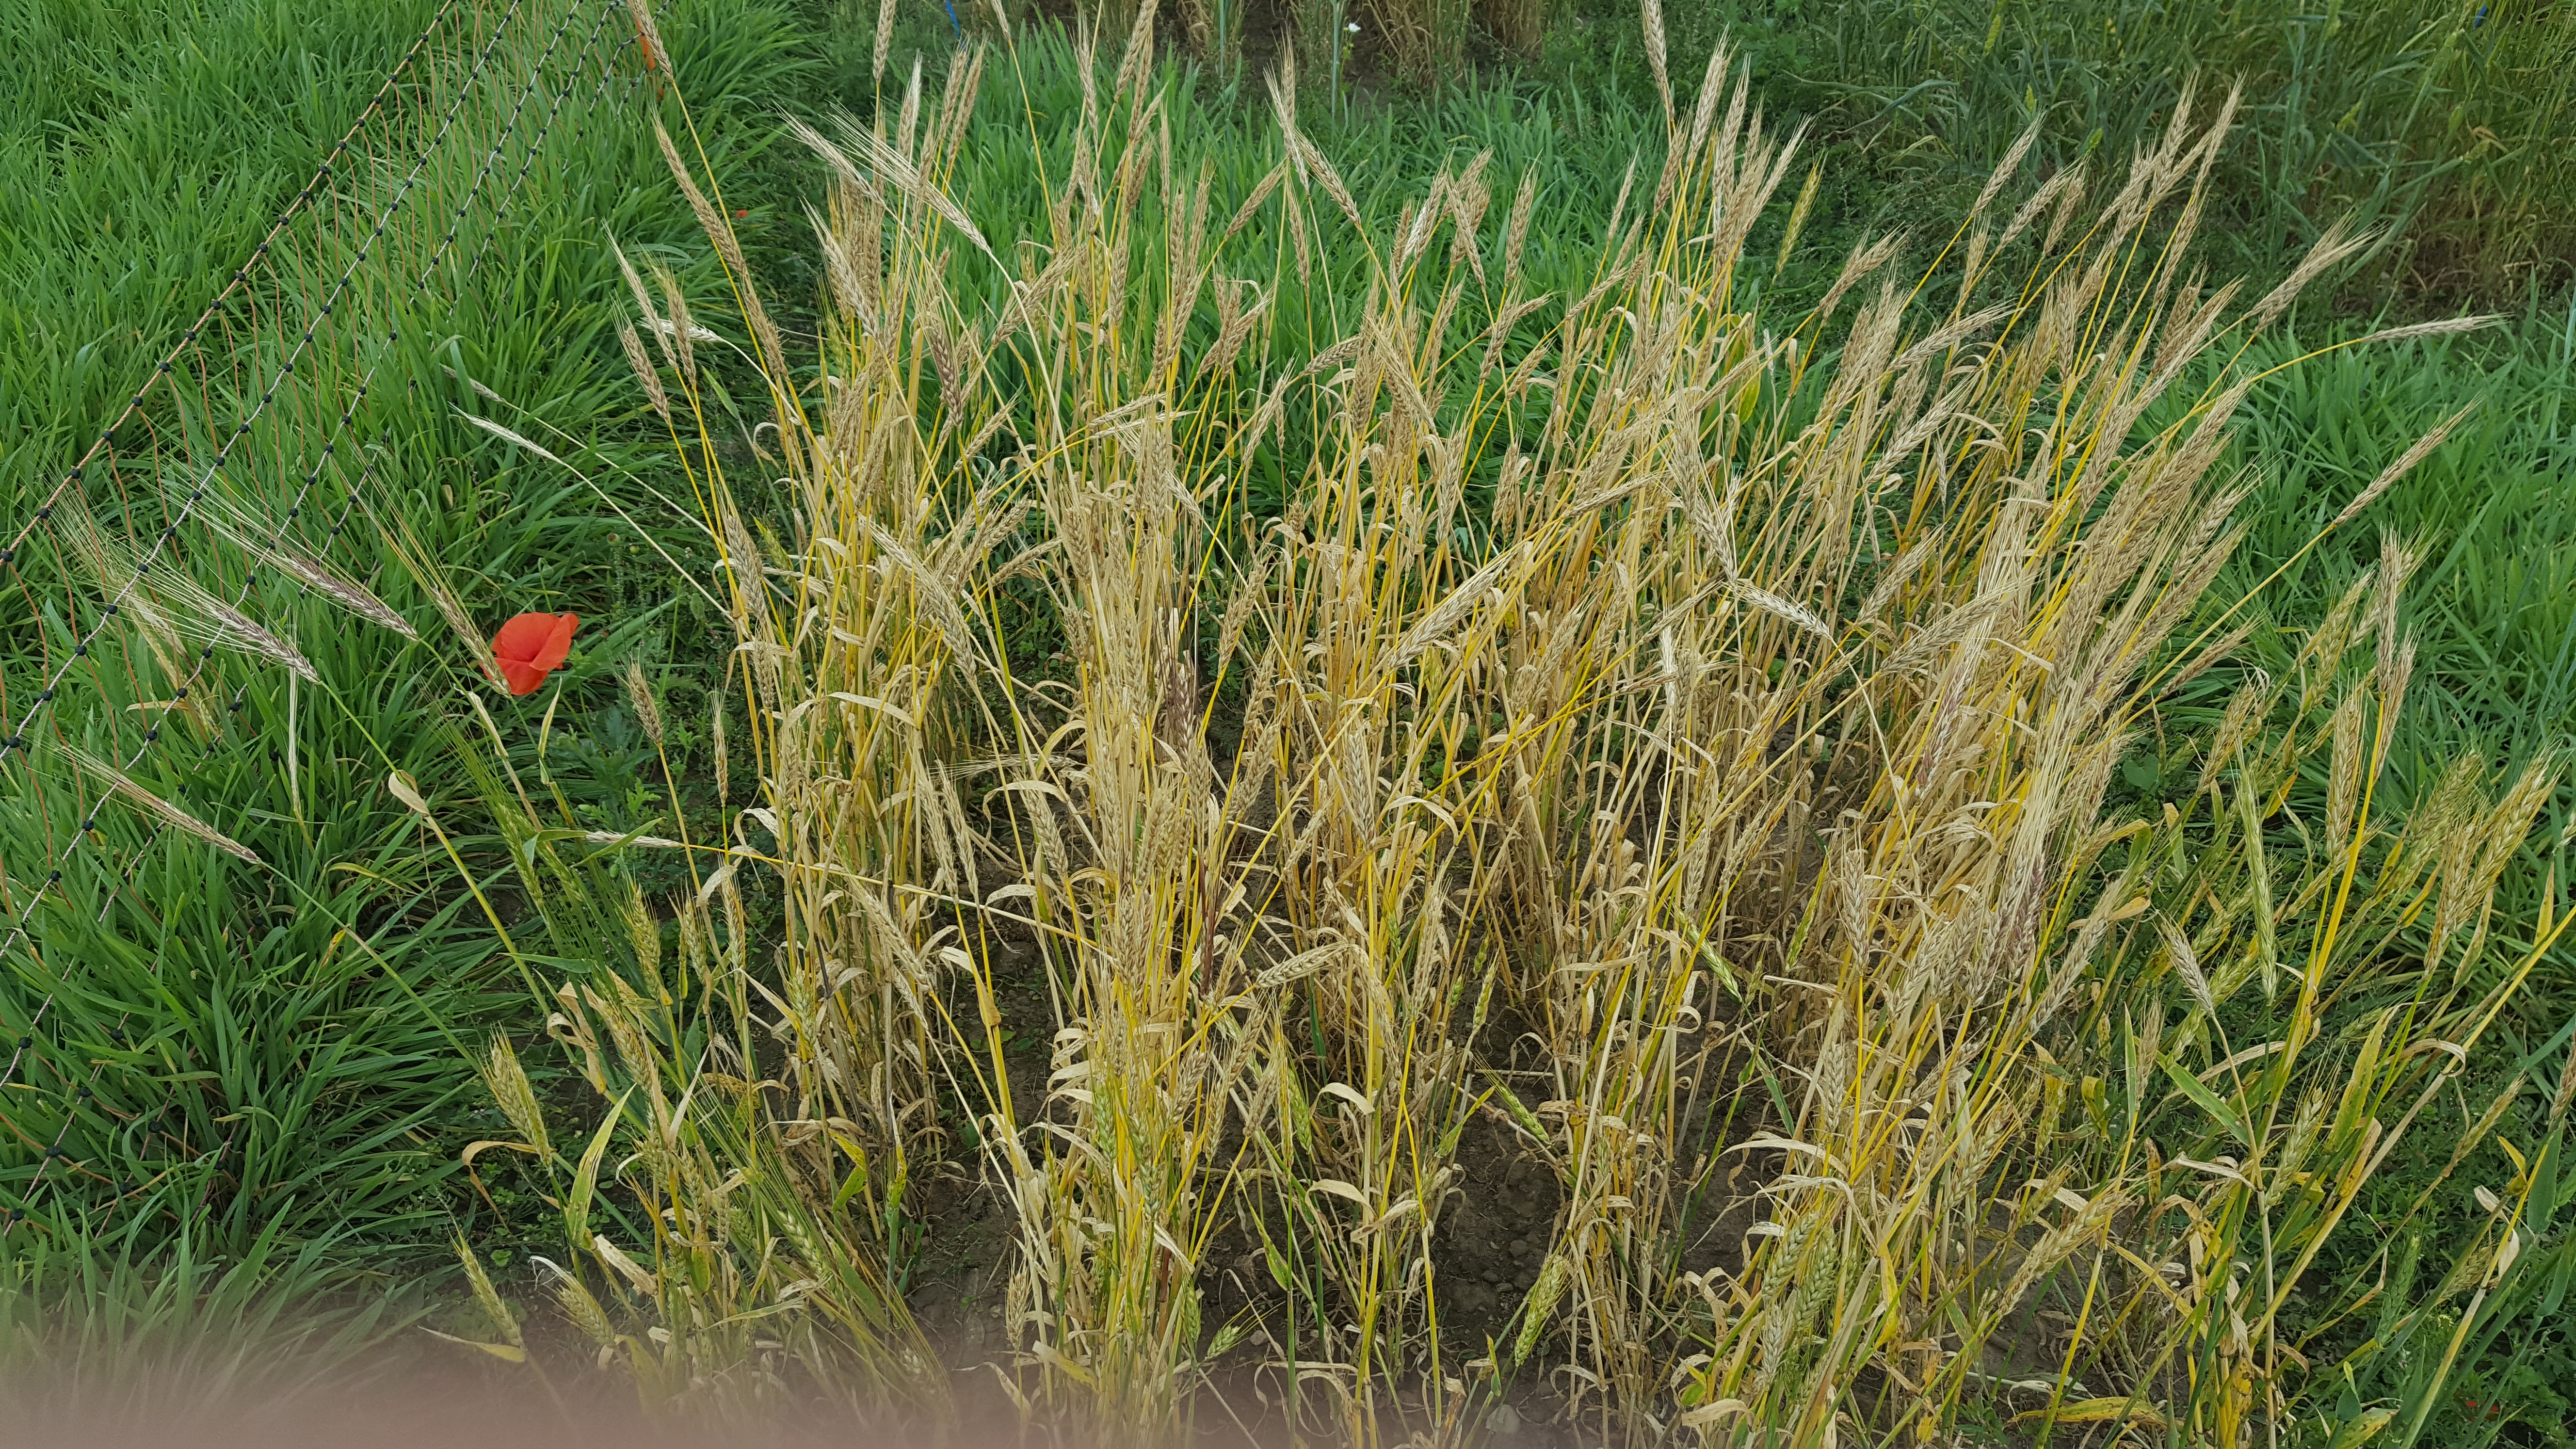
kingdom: Plantae
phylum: Tracheophyta
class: Liliopsida
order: Poales
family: Poaceae
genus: Hordeum
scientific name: Hordeum vulgare
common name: Common barley
